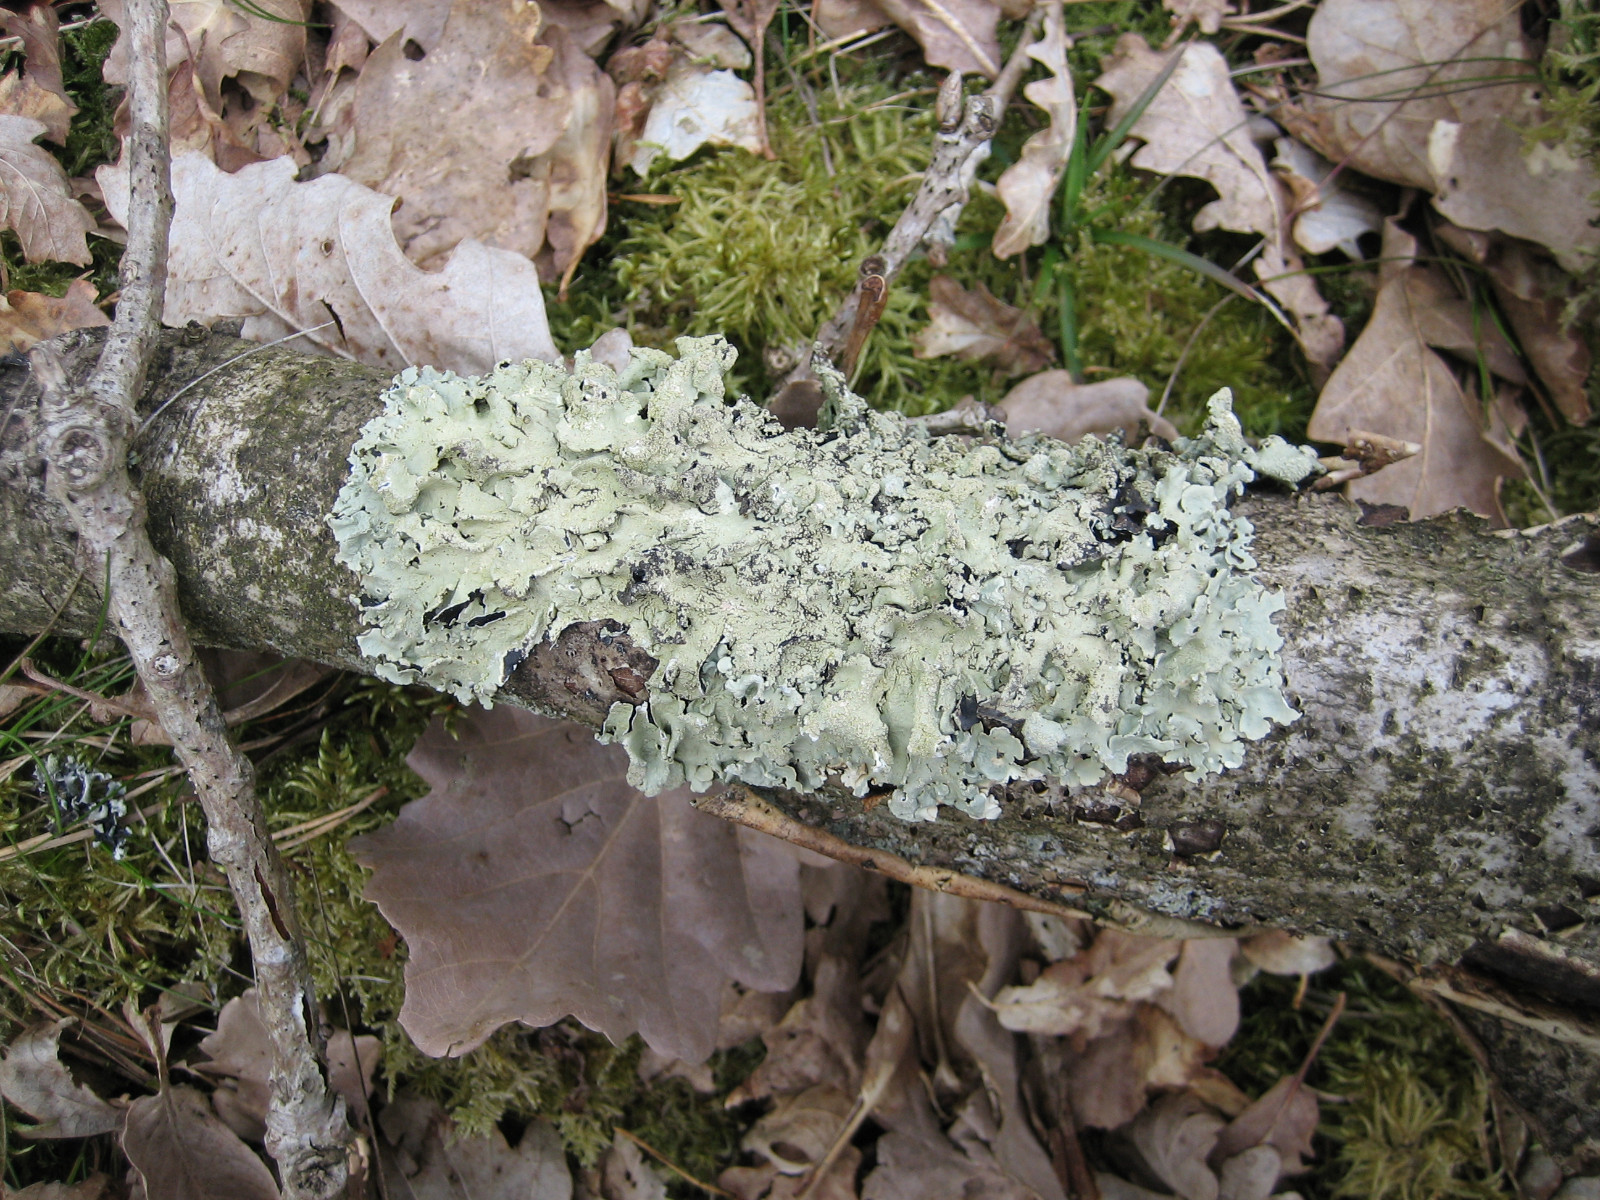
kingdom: Fungi
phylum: Ascomycota
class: Lecanoromycetes
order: Lecanorales
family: Parmeliaceae
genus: Flavoparmelia
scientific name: Flavoparmelia caperata
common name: gulgrøn skållav
